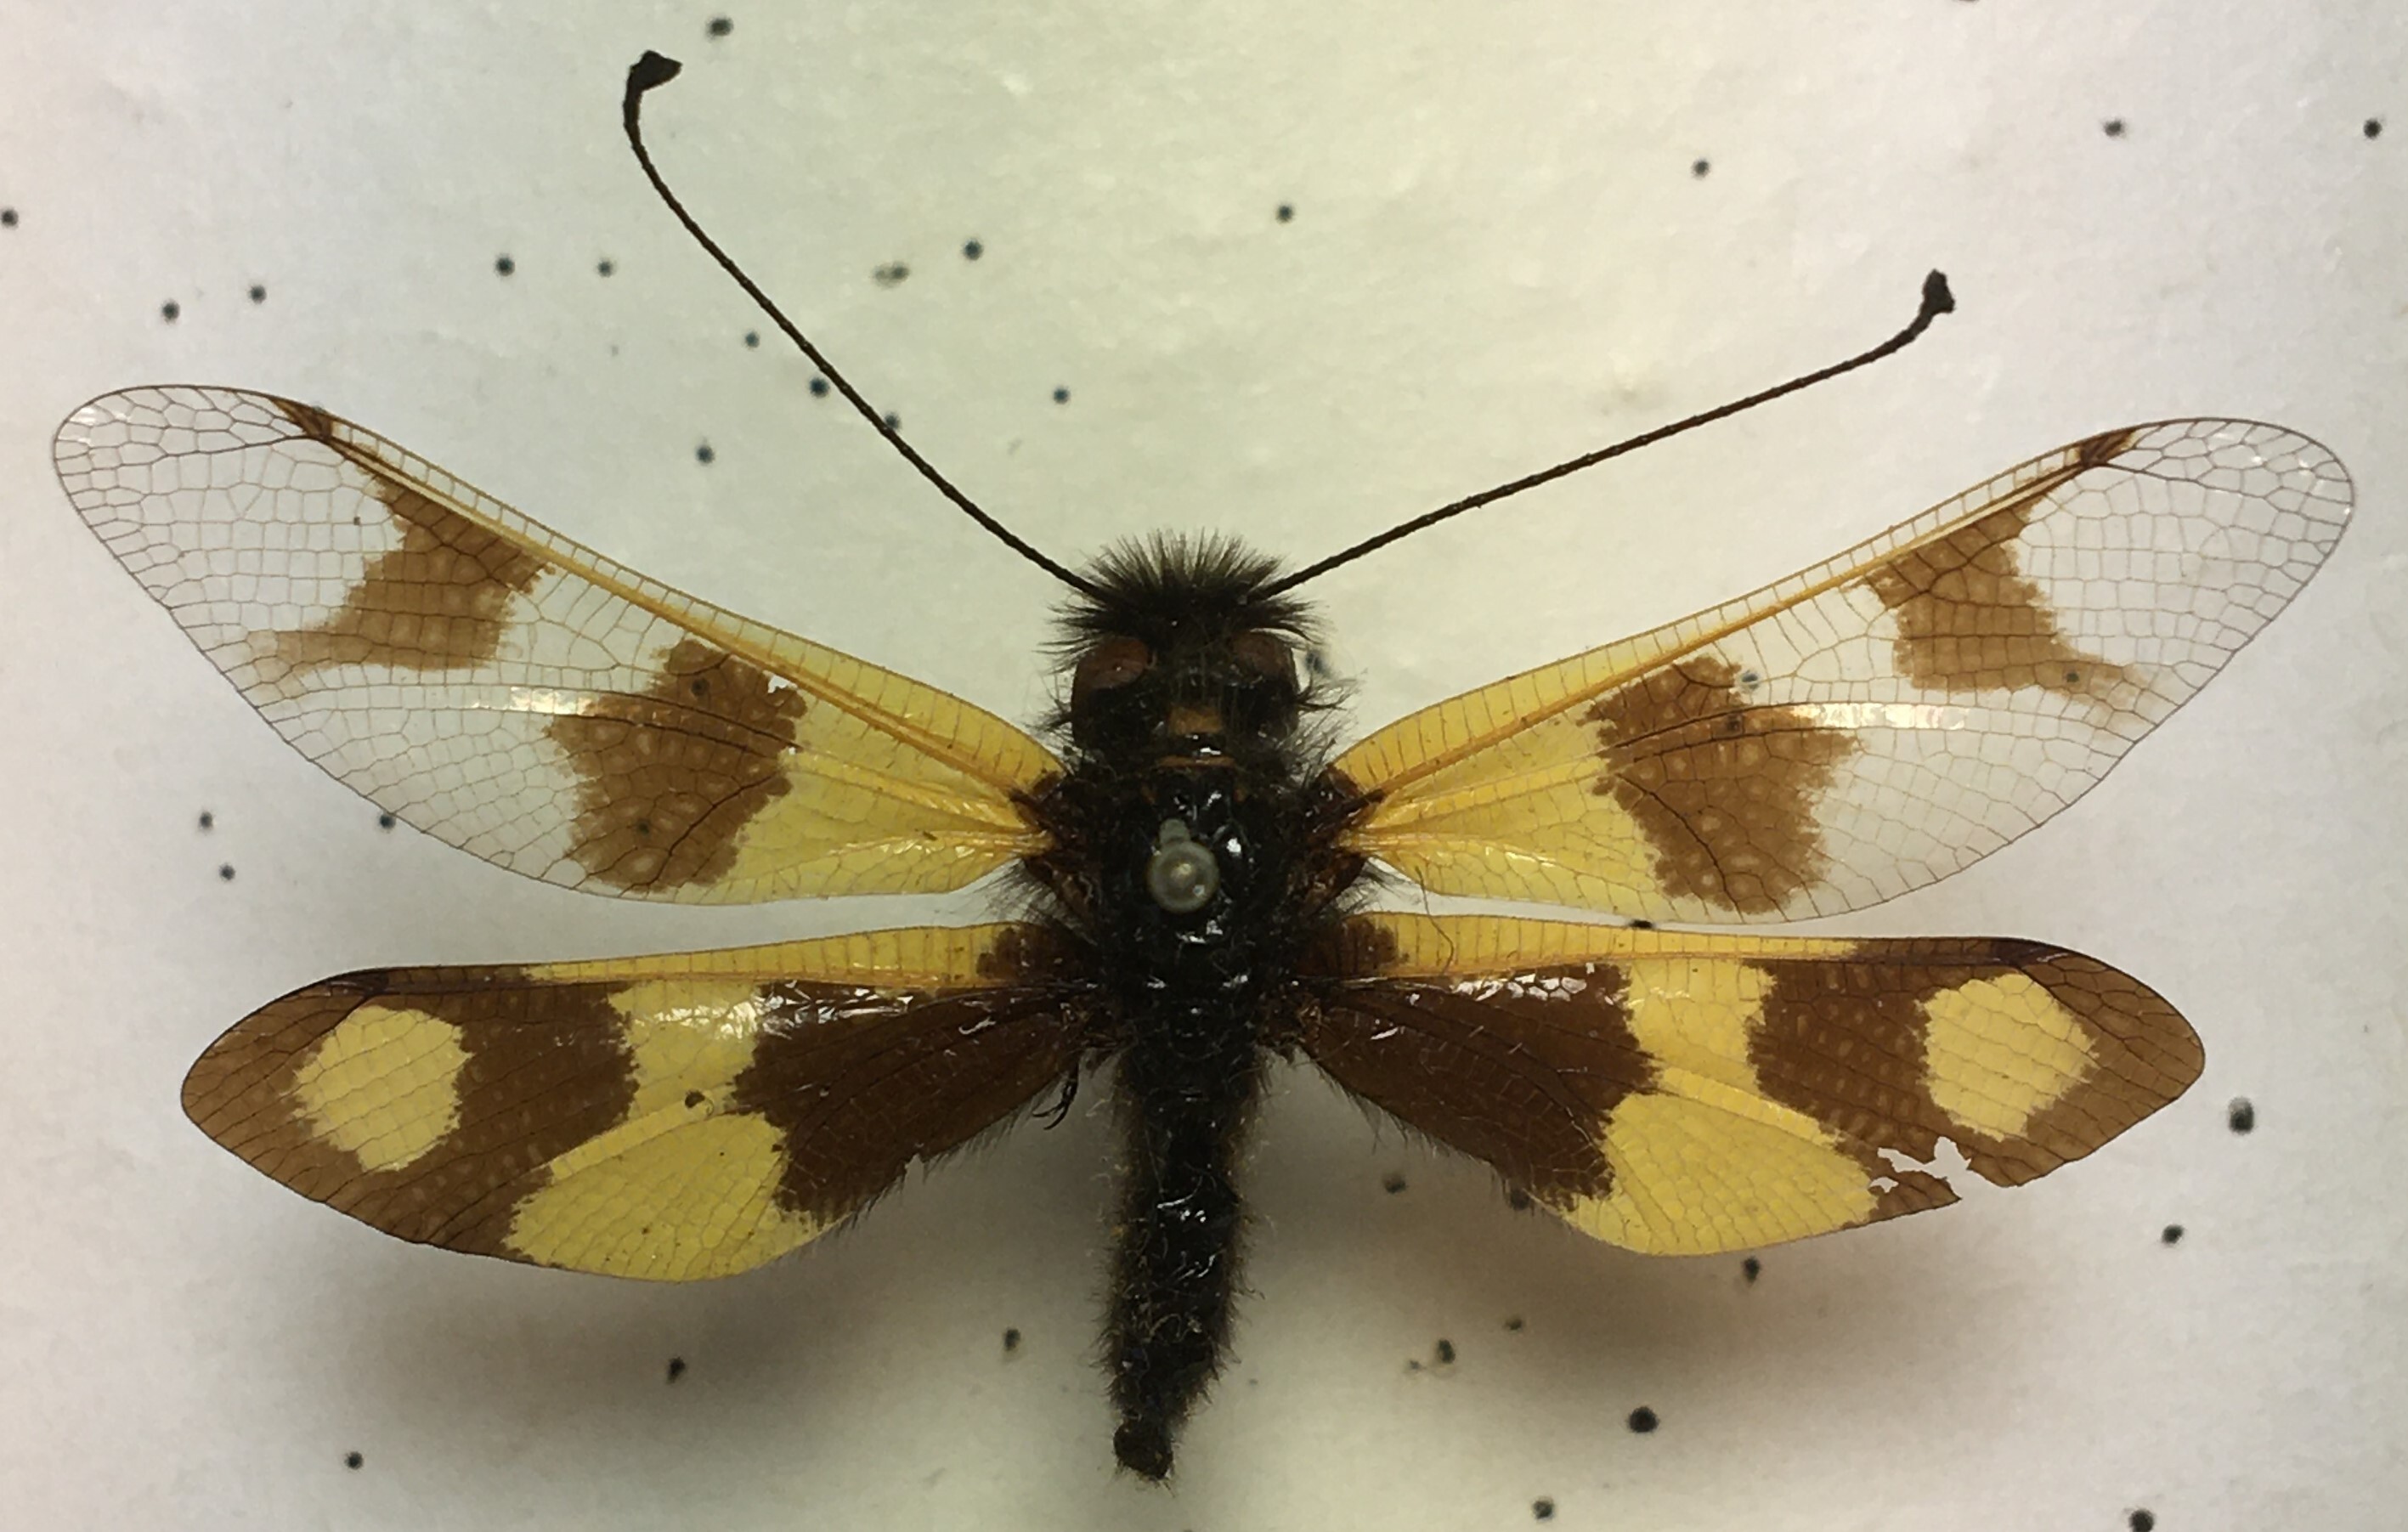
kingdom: Animalia
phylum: Arthropoda
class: Insecta
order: Neuroptera
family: Ascalaphidae
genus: Libelloides
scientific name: Libelloides macaronius
